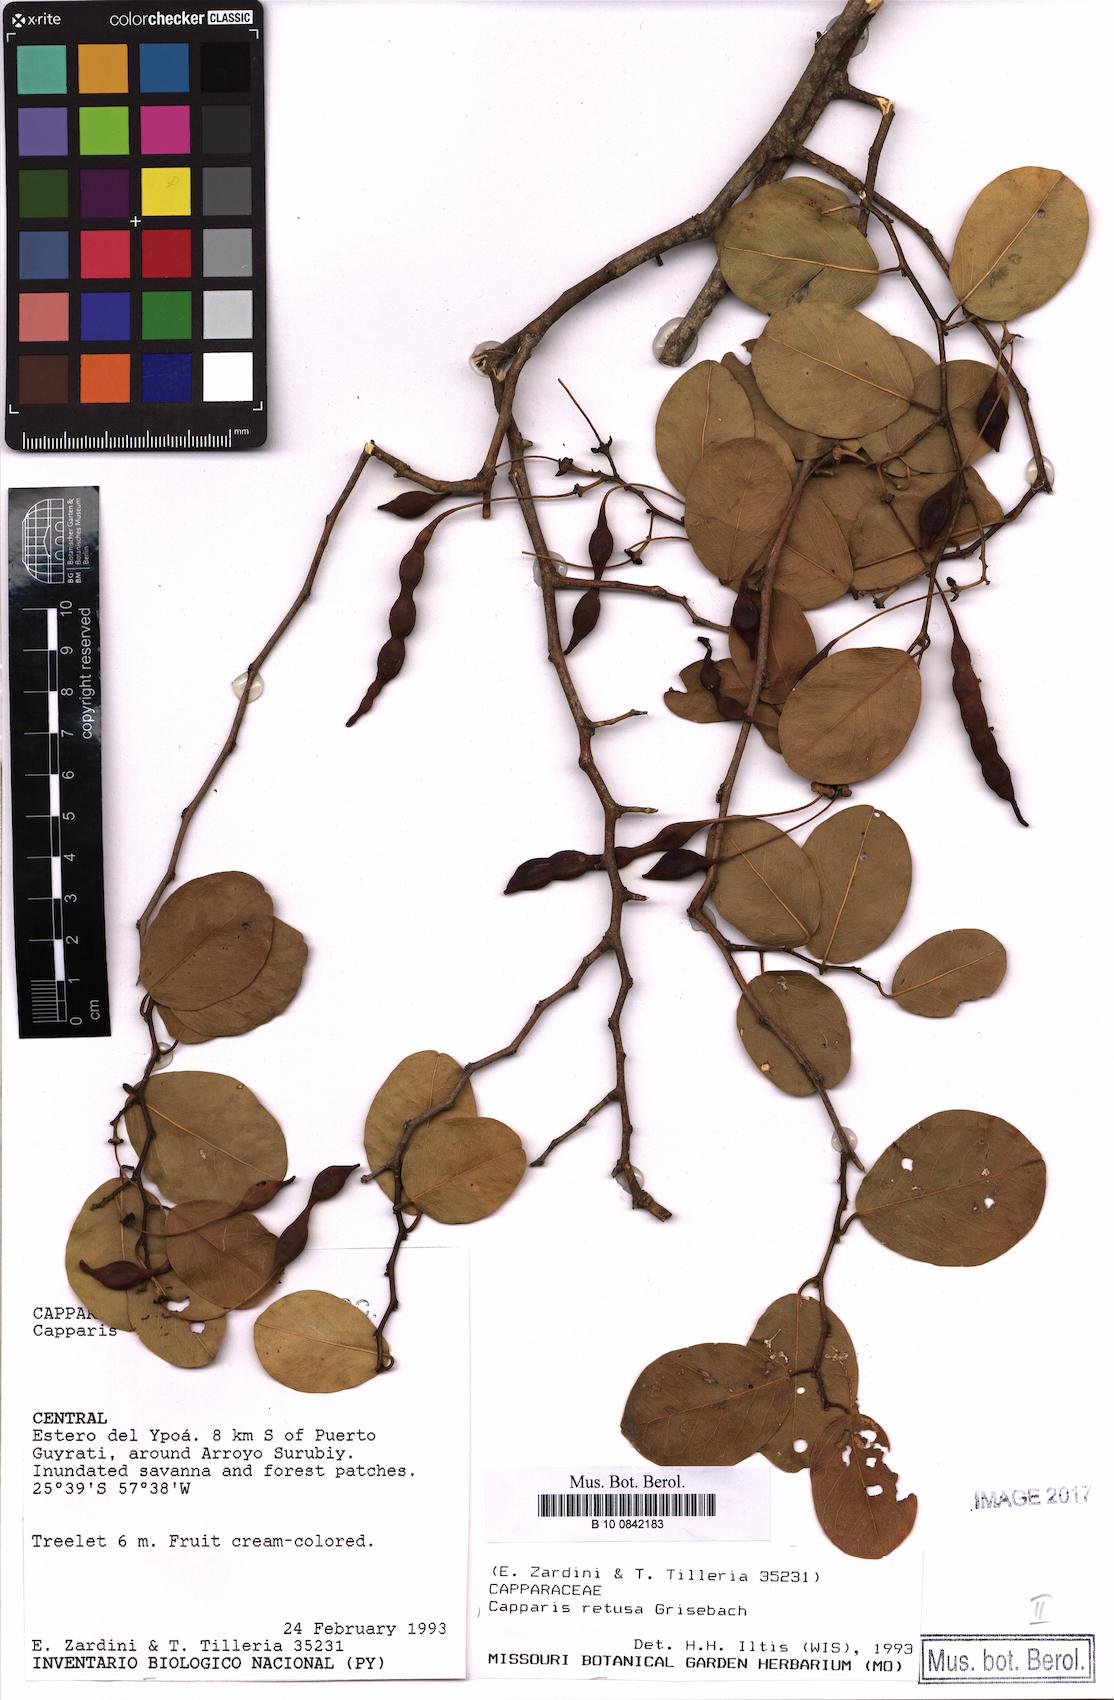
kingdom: Plantae
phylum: Tracheophyta
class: Magnoliopsida
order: Brassicales
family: Capparaceae
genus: Cynophalla
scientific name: Cynophalla retusa
